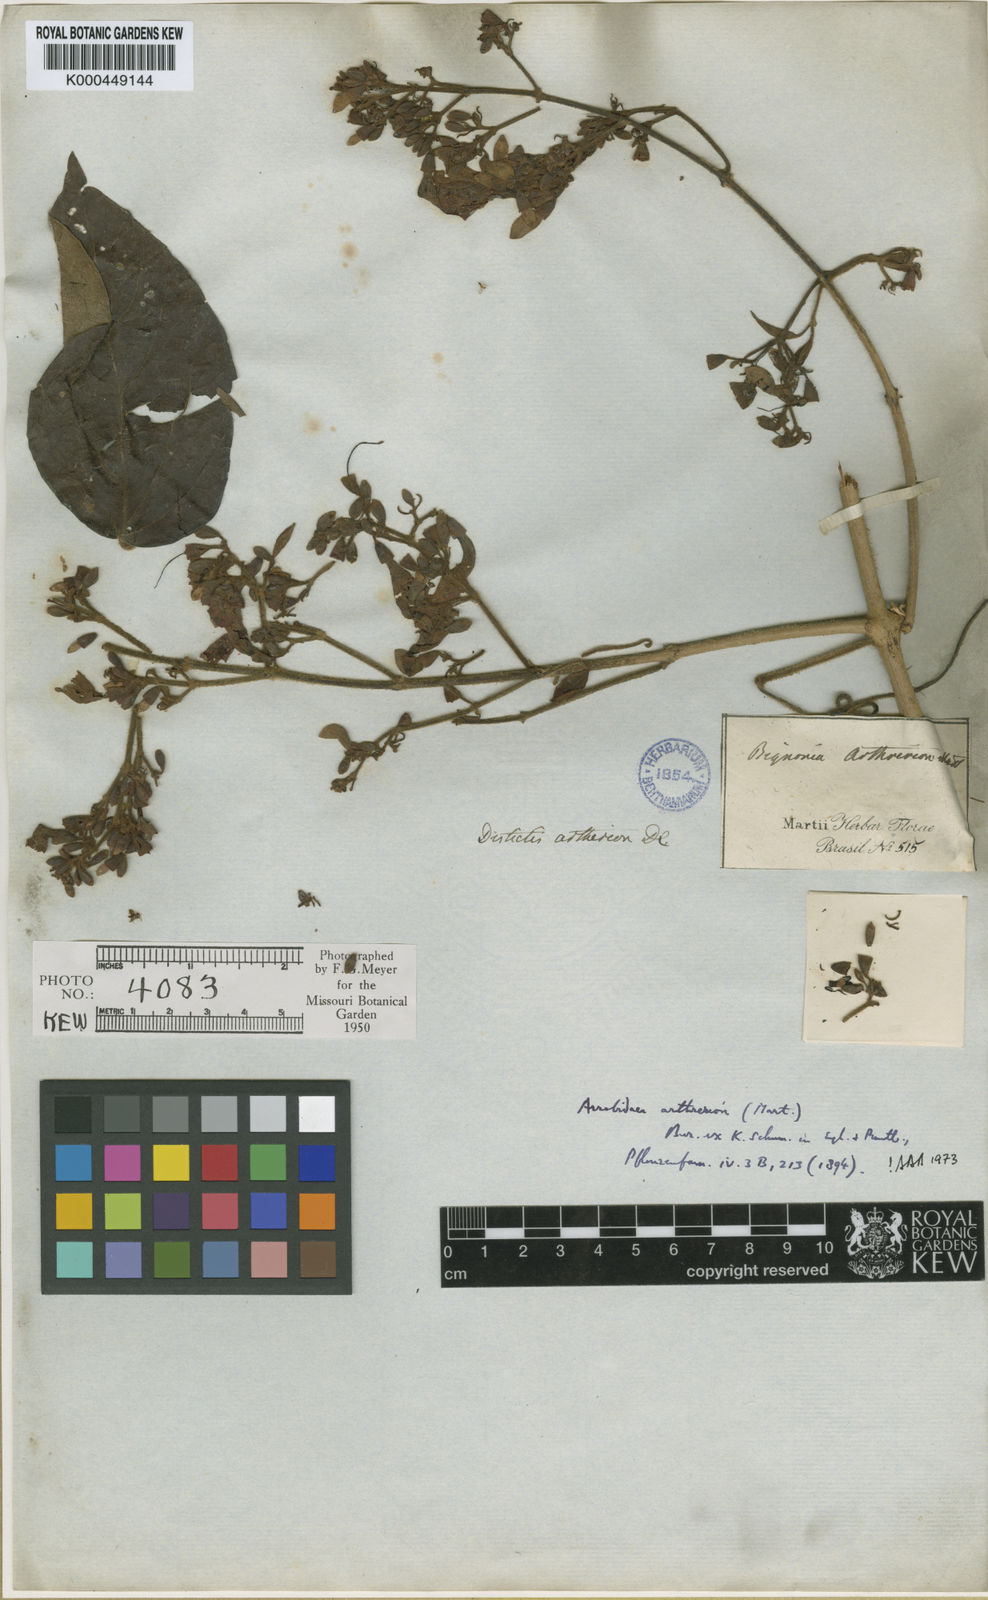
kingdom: Plantae
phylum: Tracheophyta
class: Magnoliopsida
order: Lamiales
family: Bignoniaceae
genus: Fridericia
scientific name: Fridericia arthrerion
